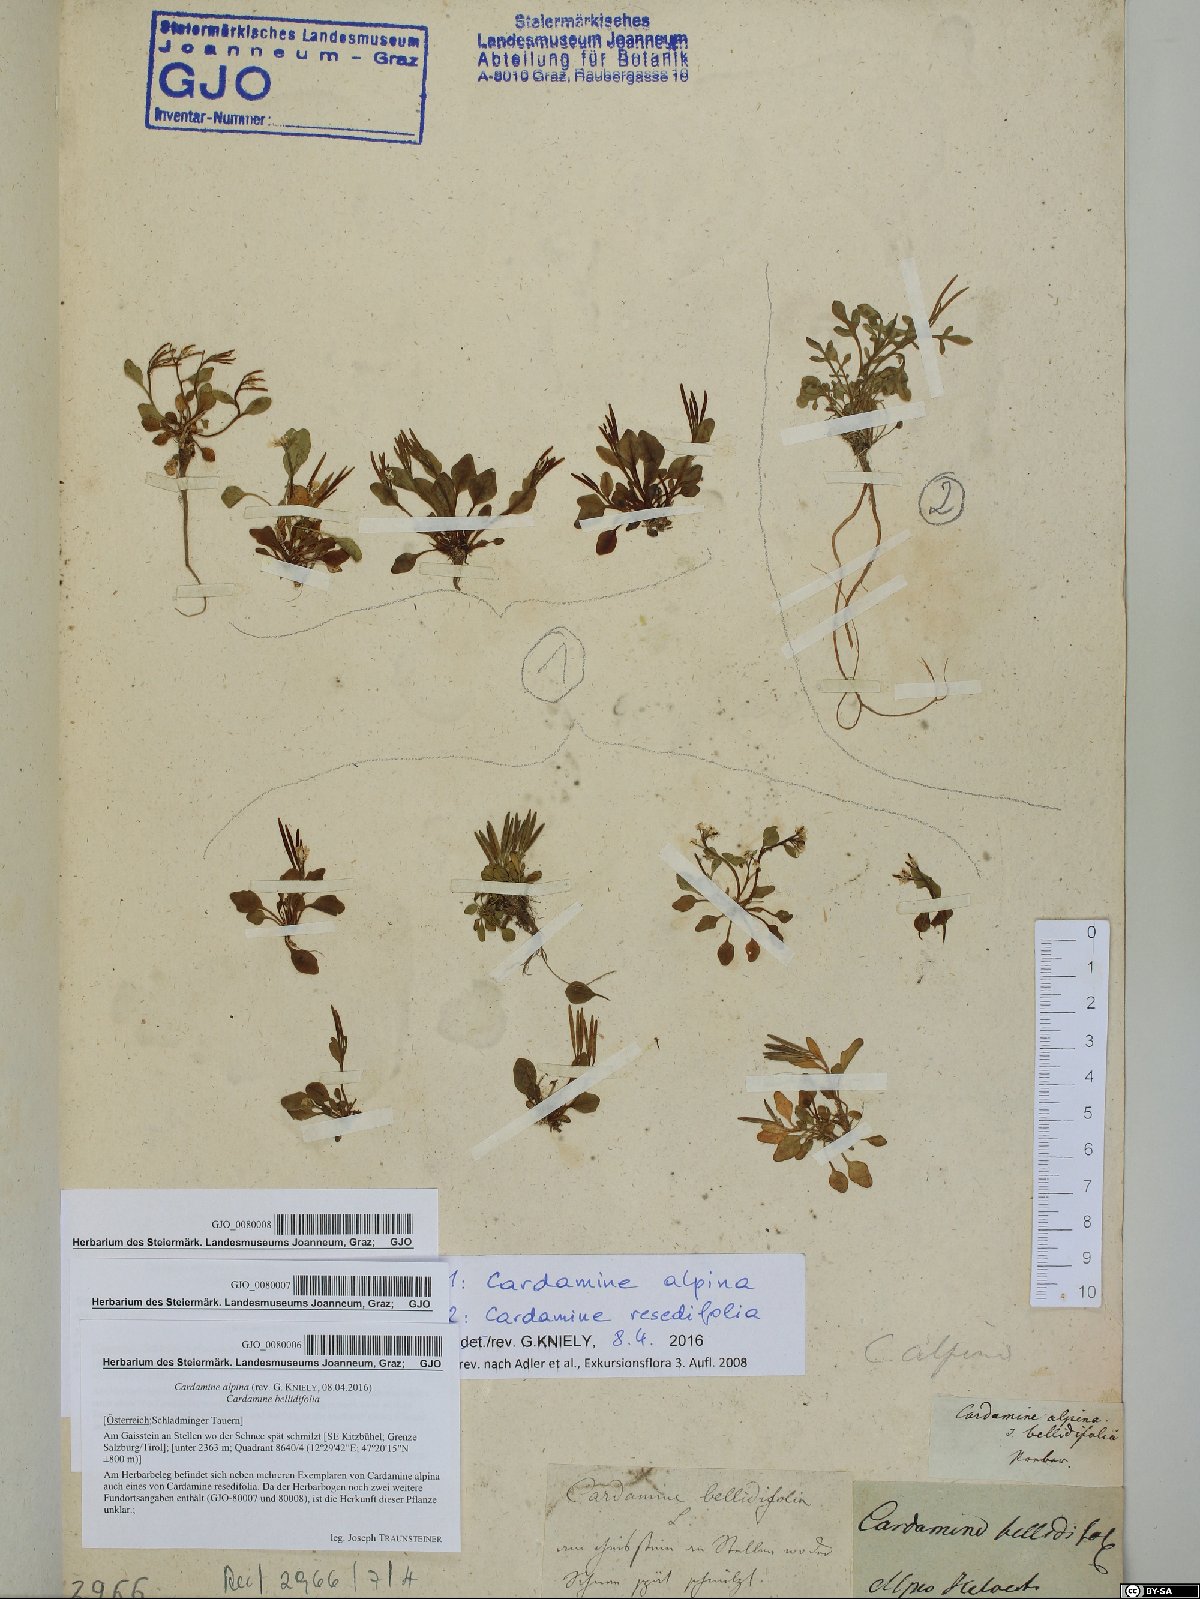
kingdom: Plantae
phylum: Tracheophyta
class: Magnoliopsida
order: Brassicales
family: Brassicaceae
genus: Cardamine
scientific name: Cardamine bellidifolia
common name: Alpine bittercress
